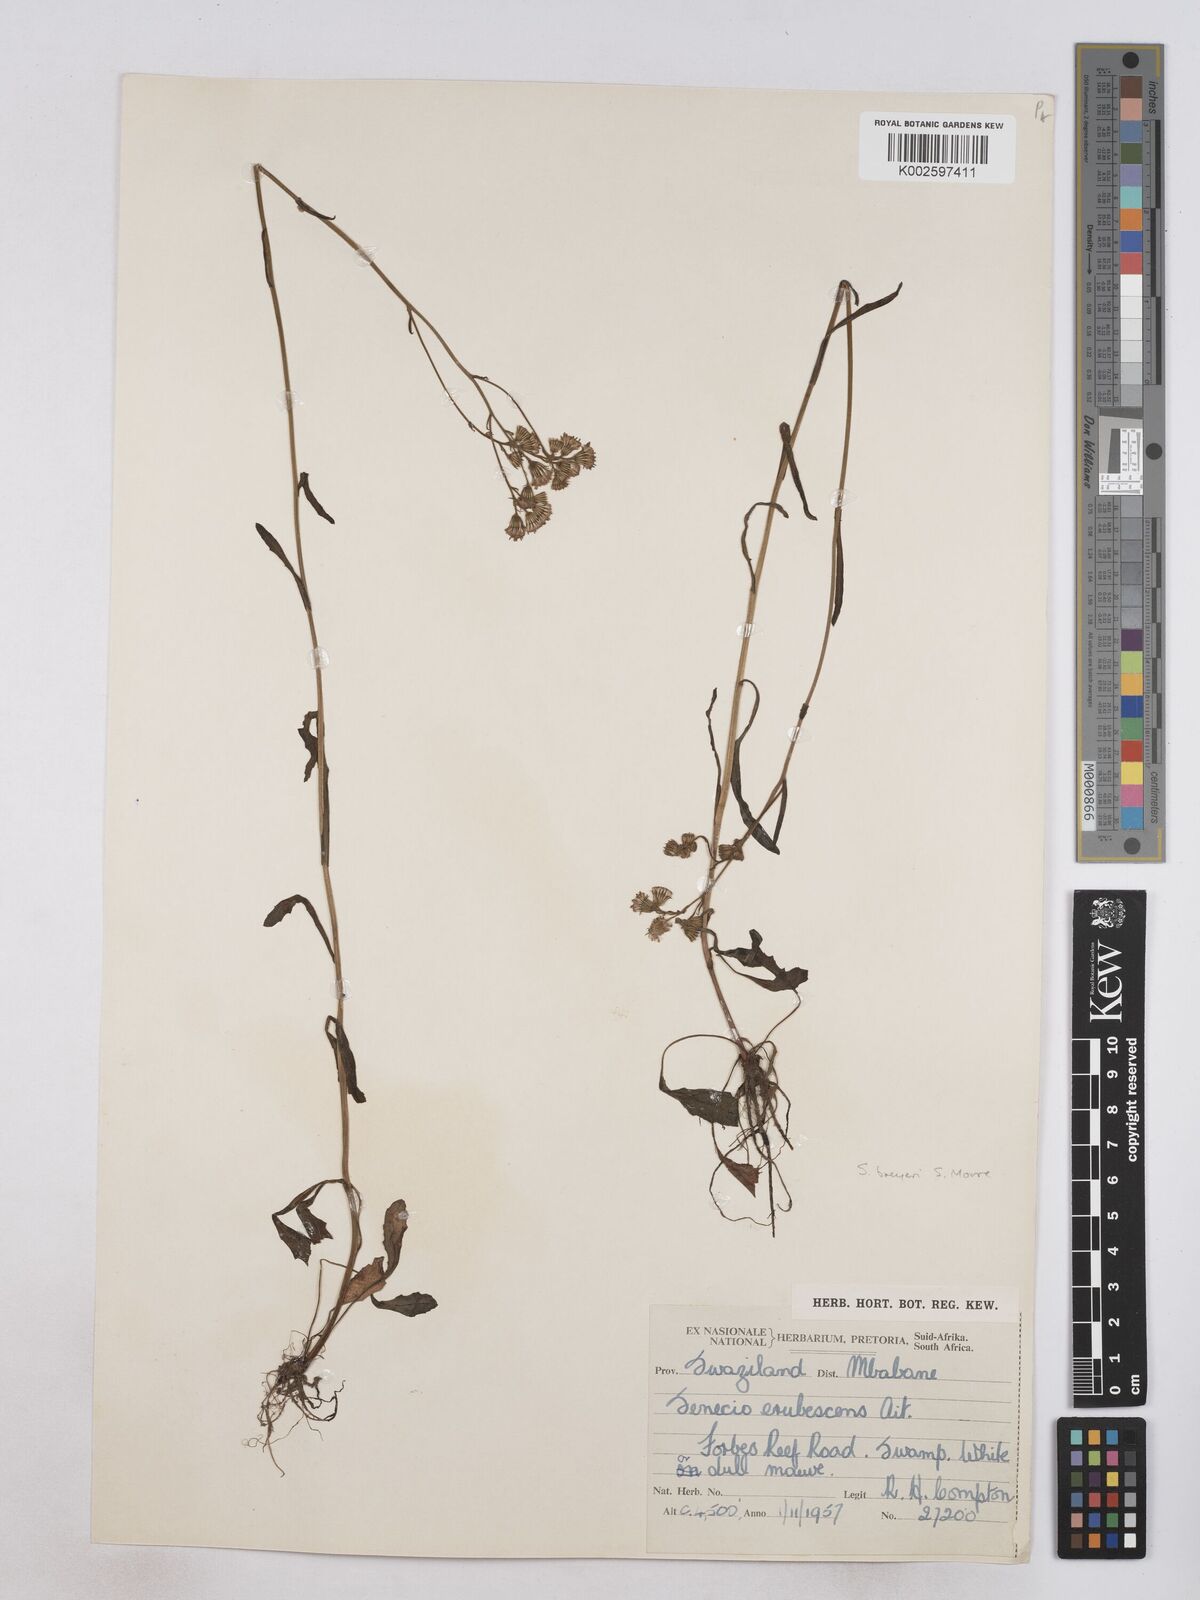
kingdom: Plantae
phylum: Tracheophyta
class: Magnoliopsida
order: Asterales
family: Asteraceae
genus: Senecio
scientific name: Senecio polyodon
